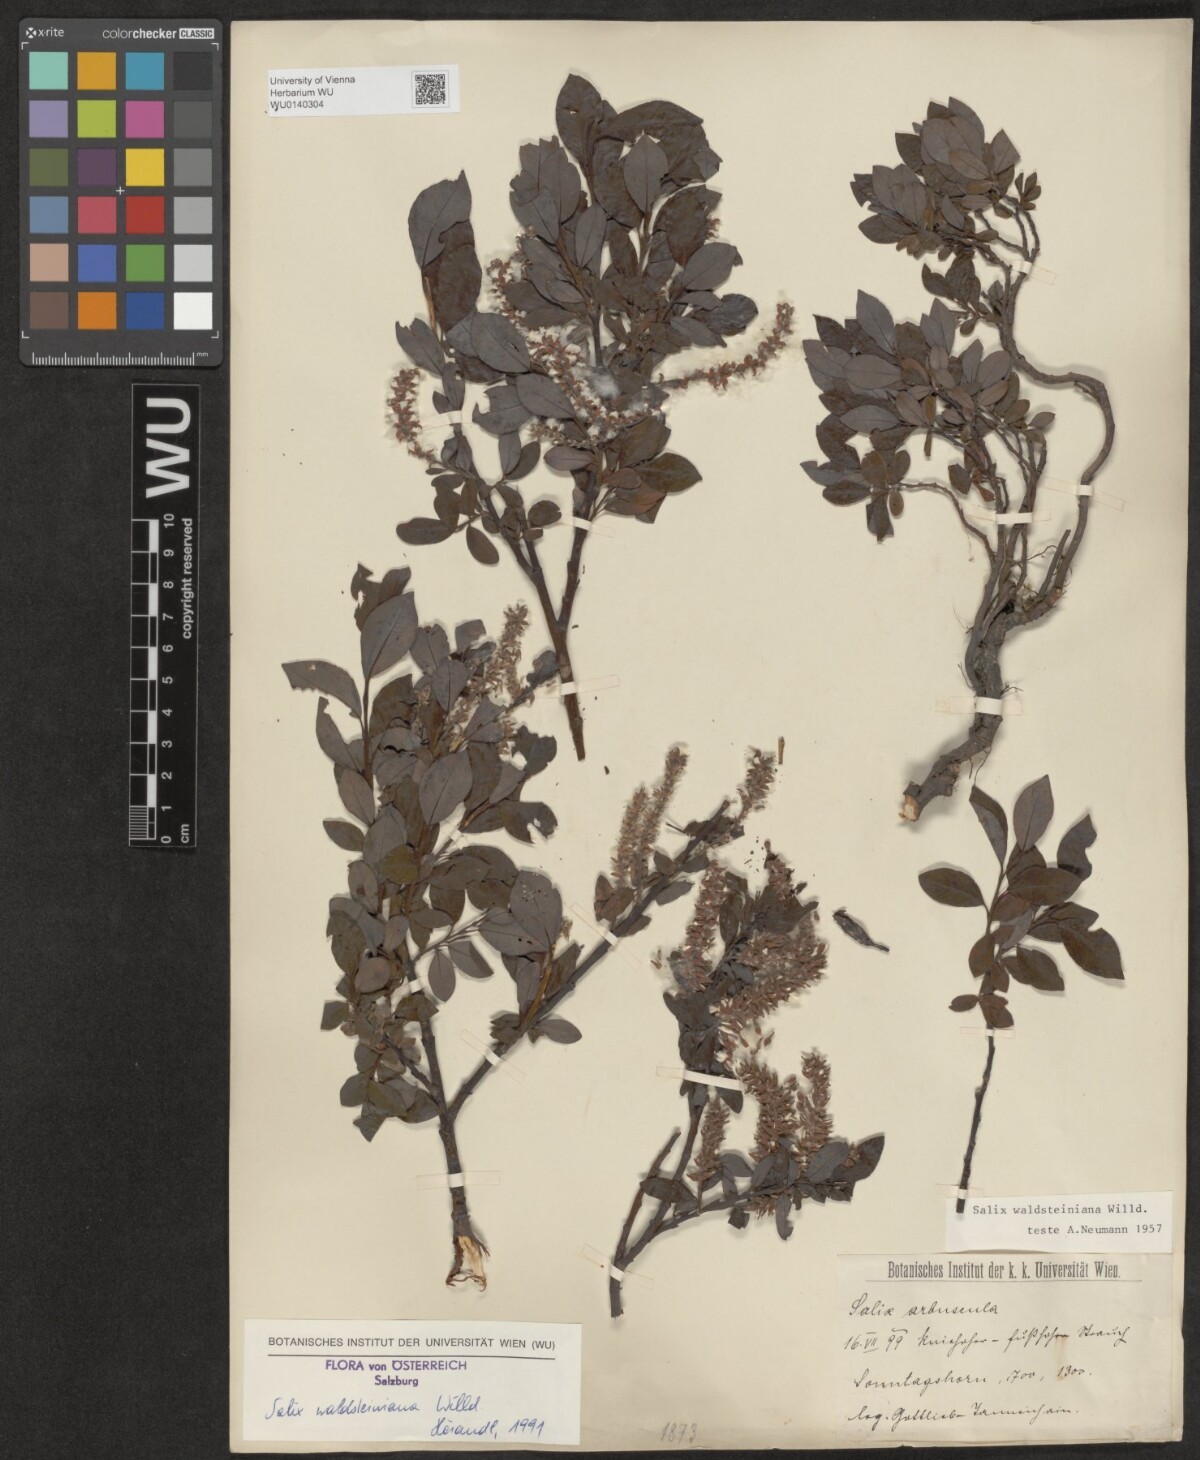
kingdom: Plantae
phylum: Tracheophyta
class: Magnoliopsida
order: Malpighiales
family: Salicaceae
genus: Salix
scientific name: Salix waldsteiniana
